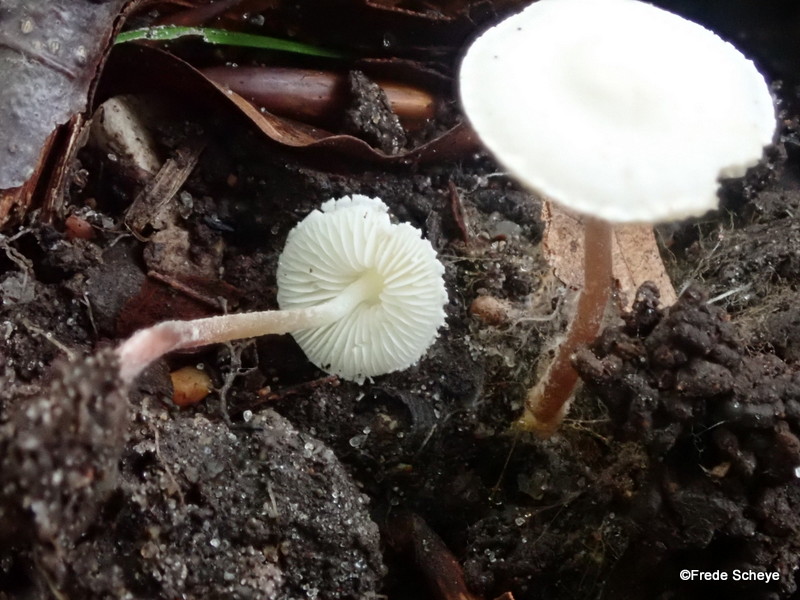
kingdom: Fungi
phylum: Basidiomycota
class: Agaricomycetes
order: Agaricales
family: Agaricaceae
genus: Cystolepiota
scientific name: Cystolepiota seminuda
